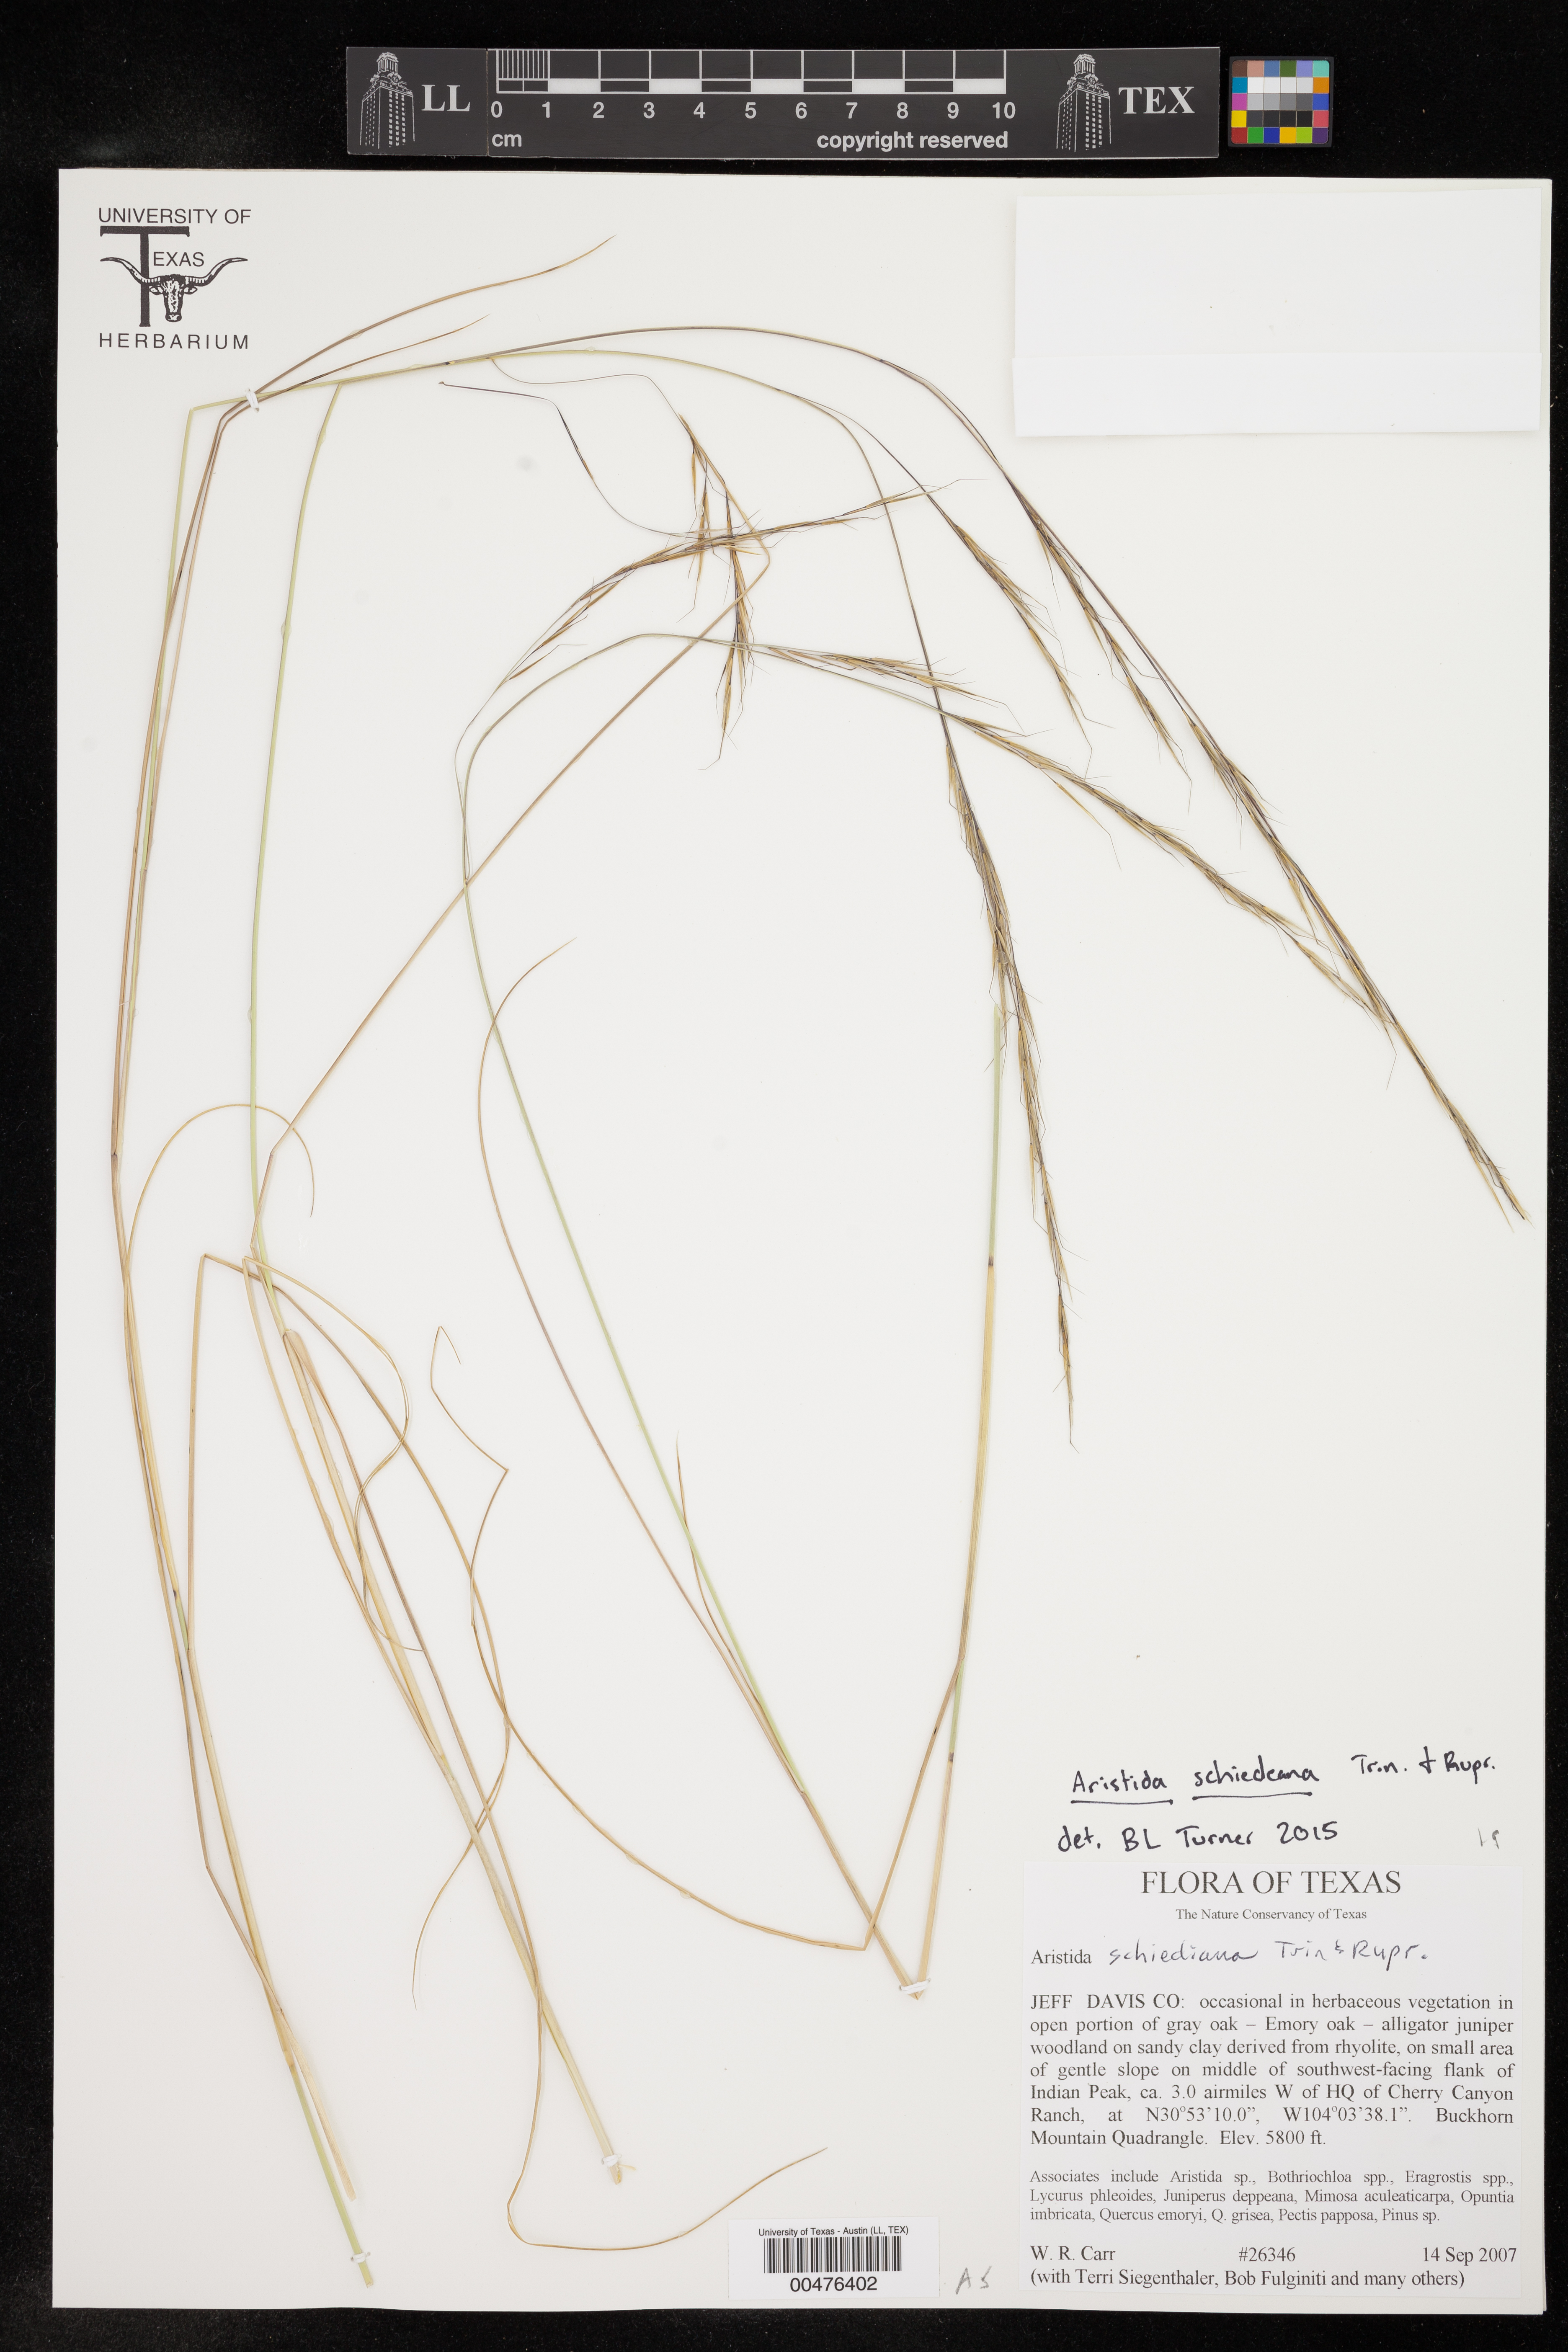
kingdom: Plantae
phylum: Tracheophyta
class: Liliopsida
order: Poales
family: Poaceae
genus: Aristida
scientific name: Aristida schiedeana
